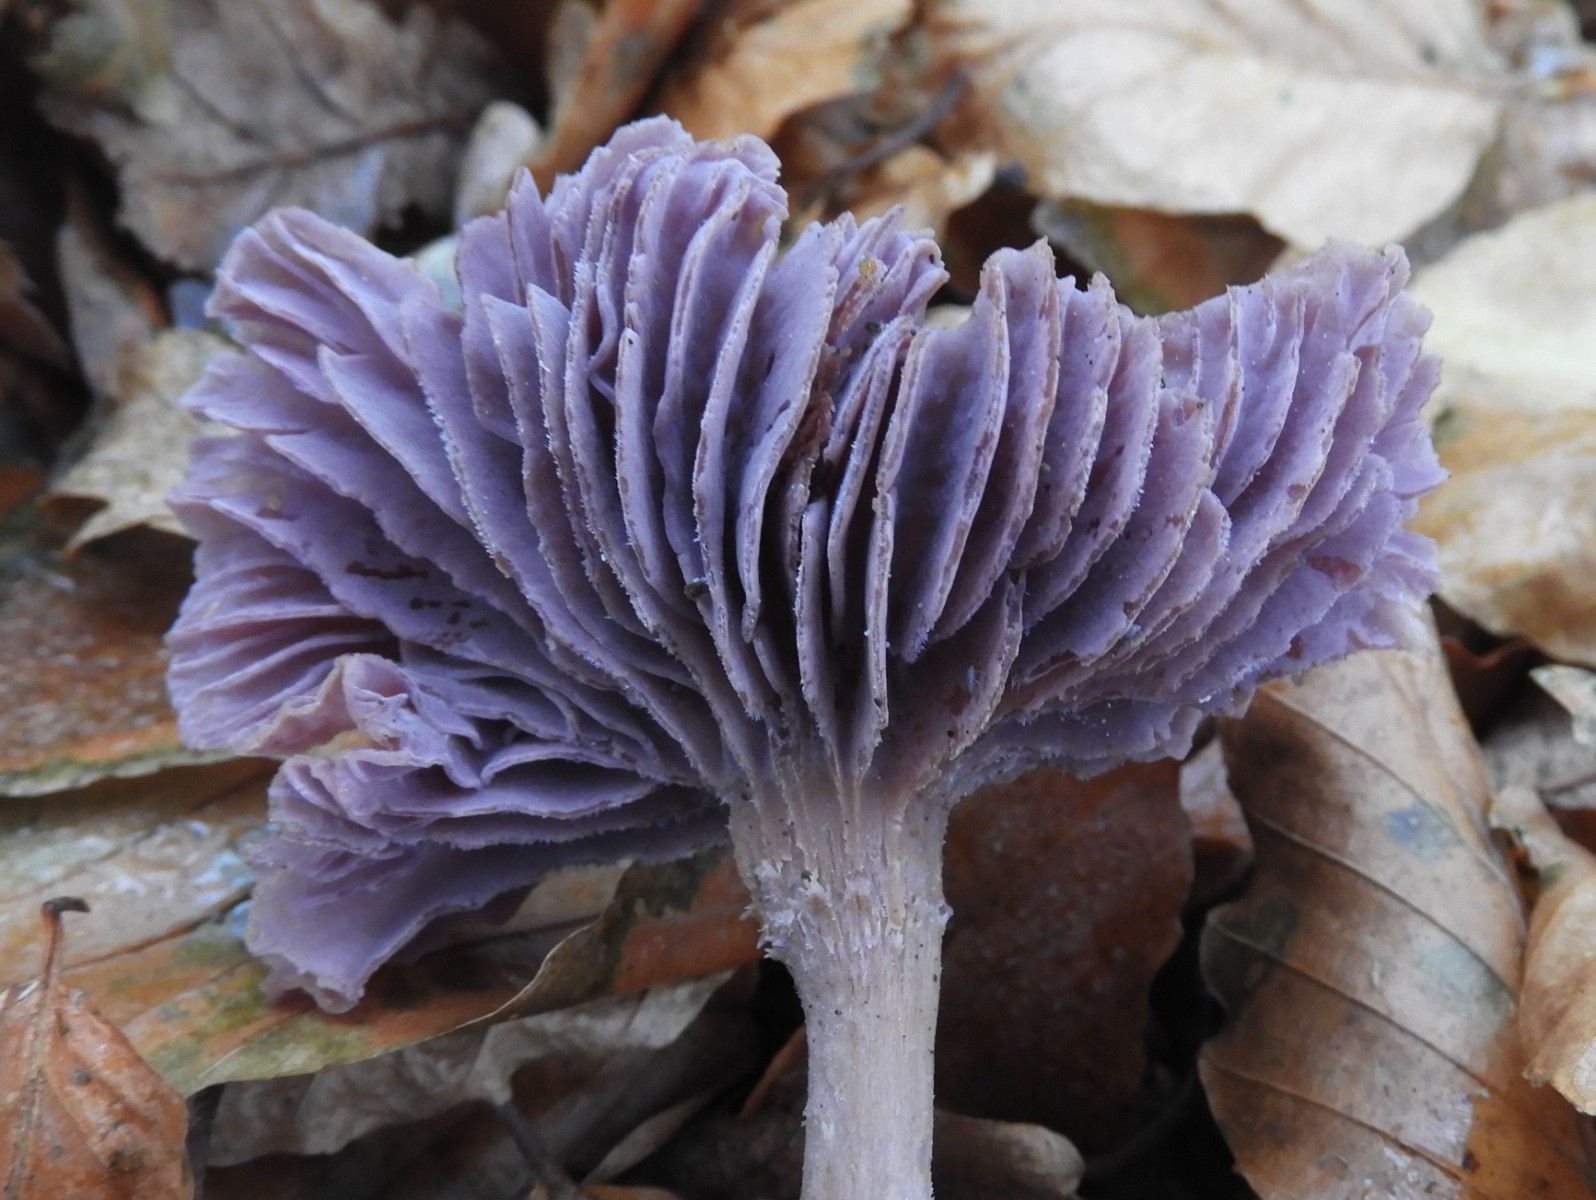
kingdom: Fungi
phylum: Basidiomycota
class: Agaricomycetes
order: Agaricales
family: Hydnangiaceae
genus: Laccaria
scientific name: Laccaria amethystina
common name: violet ametysthat
